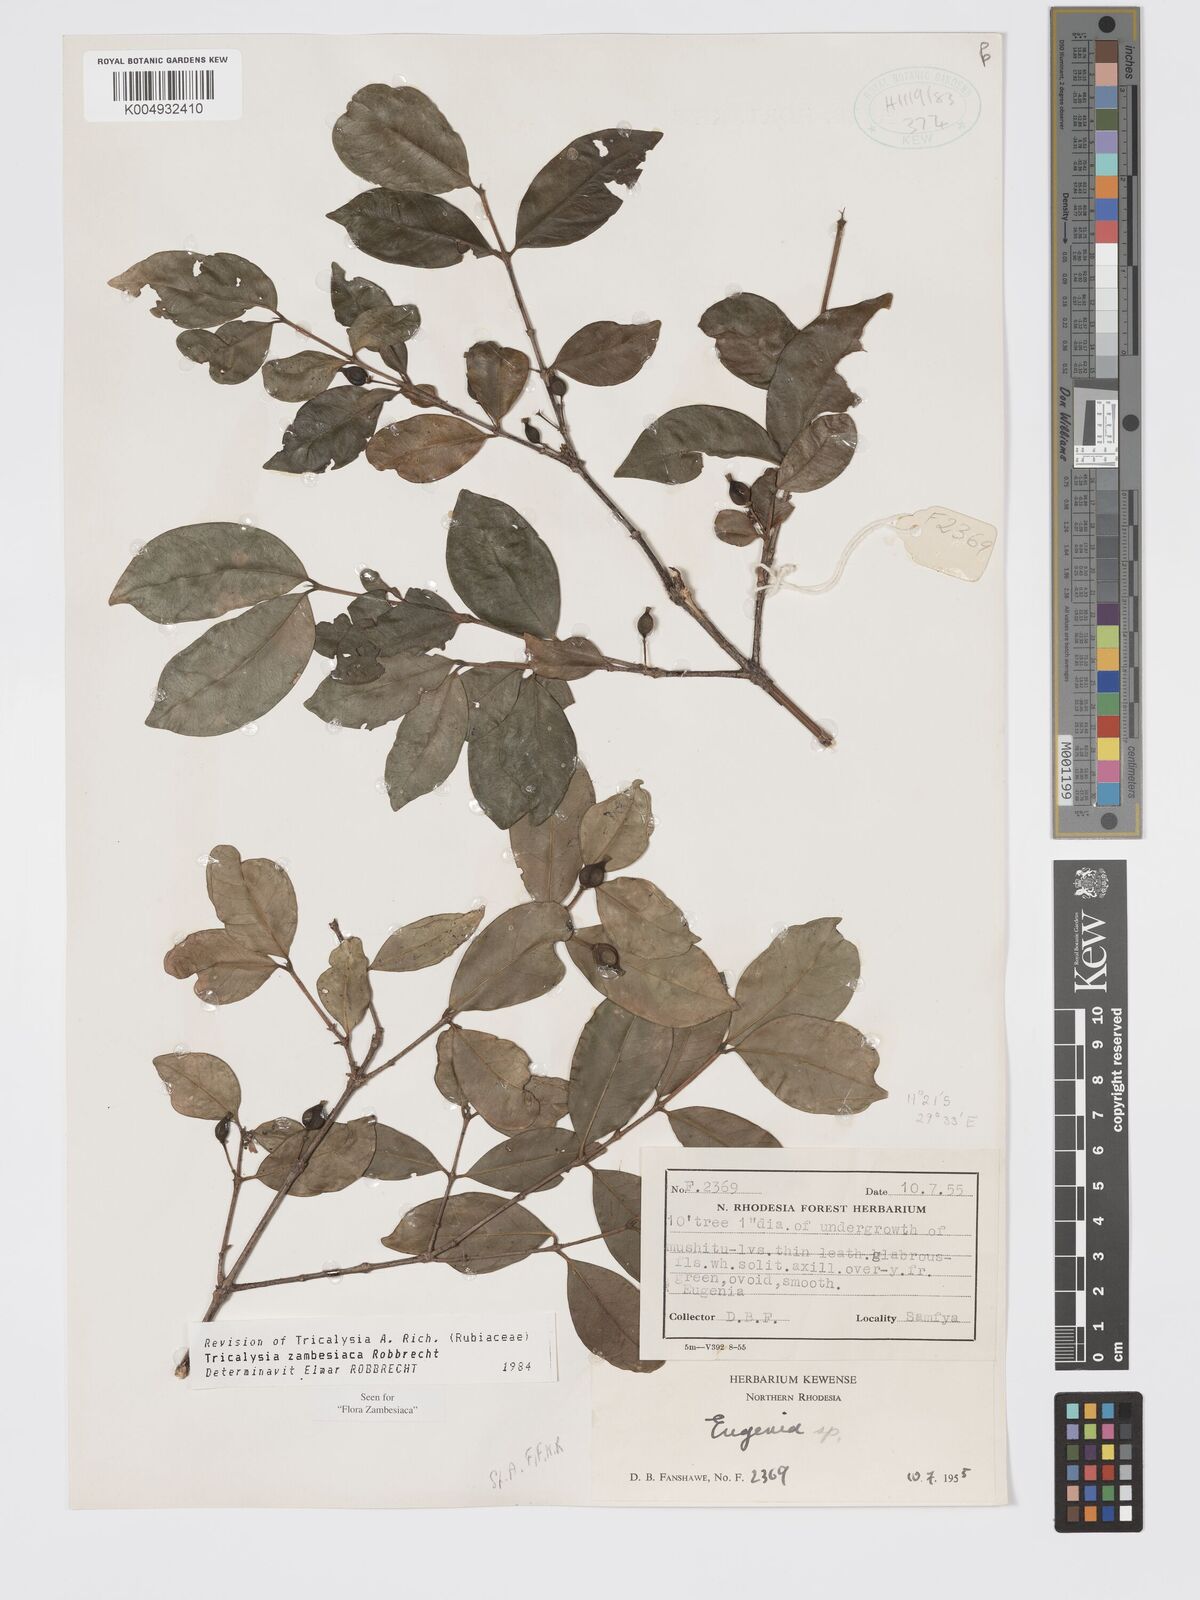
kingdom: Plantae
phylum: Tracheophyta
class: Magnoliopsida
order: Gentianales
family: Rubiaceae
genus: Tricalysia
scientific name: Tricalysia
